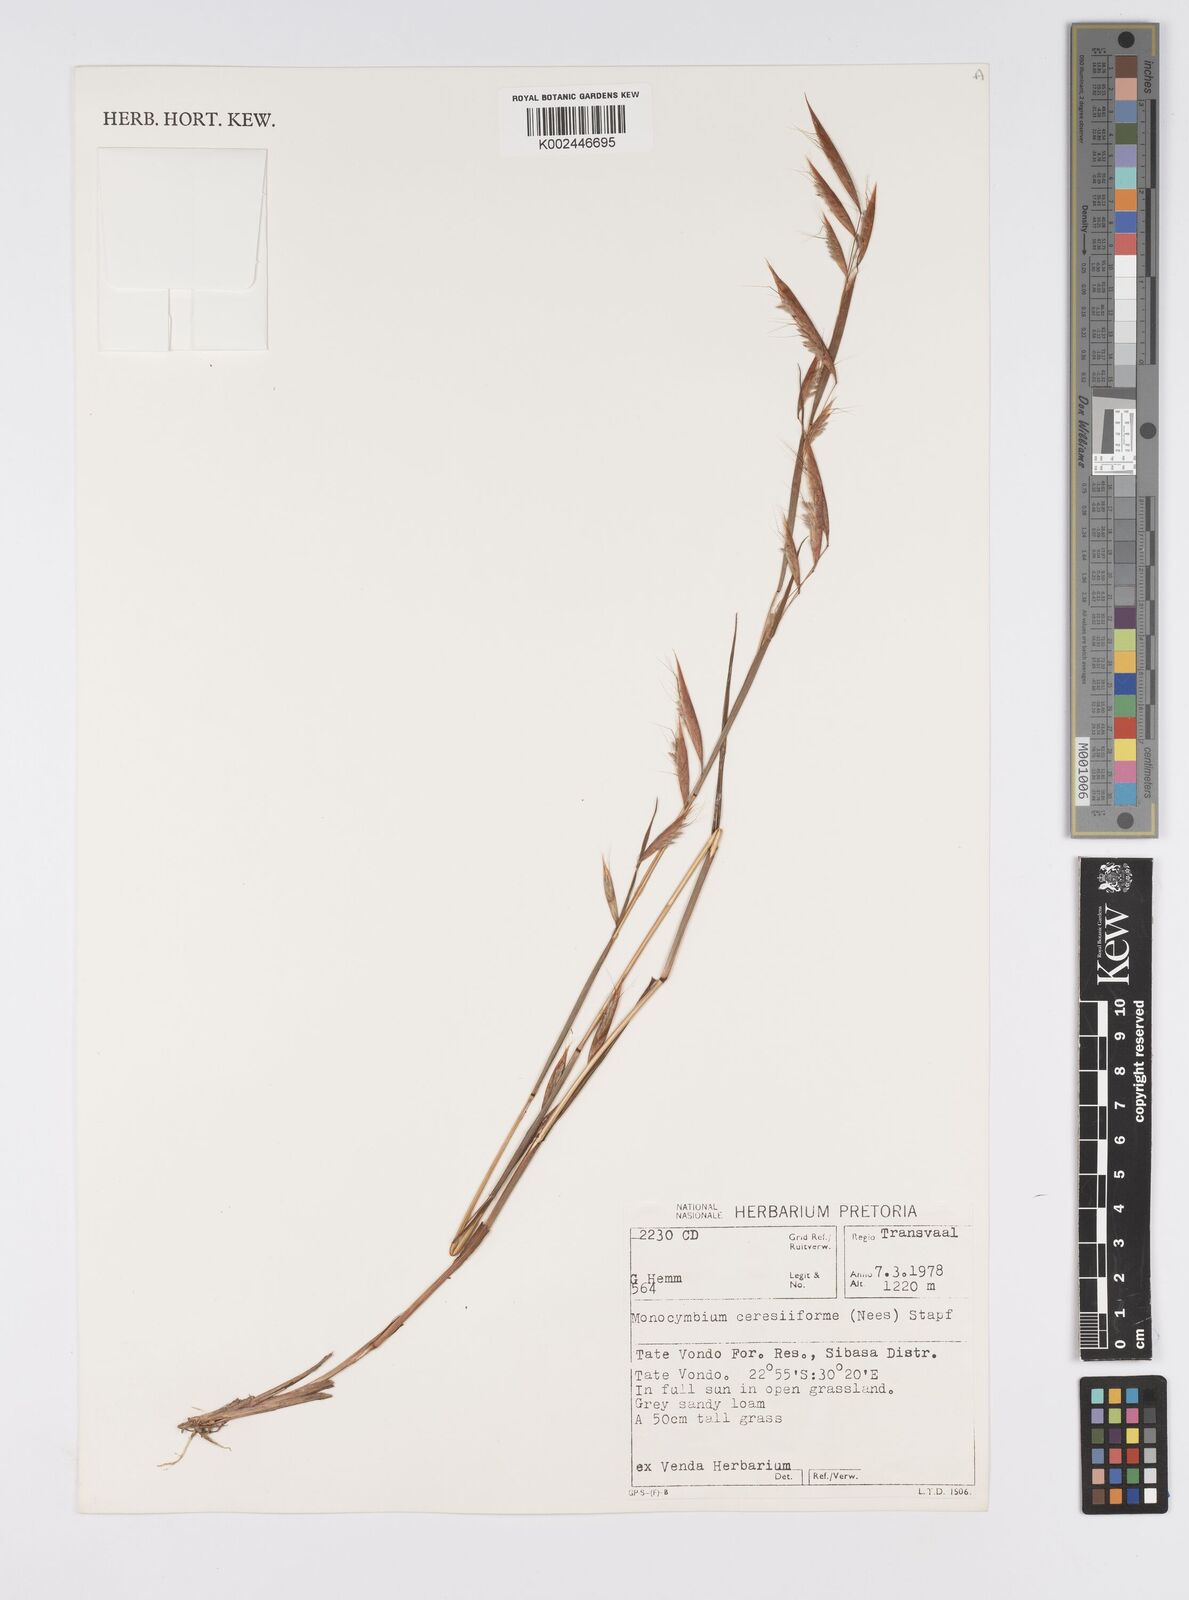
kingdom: Plantae
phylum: Tracheophyta
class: Liliopsida
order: Poales
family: Poaceae
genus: Monocymbium
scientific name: Monocymbium ceresiiforme
